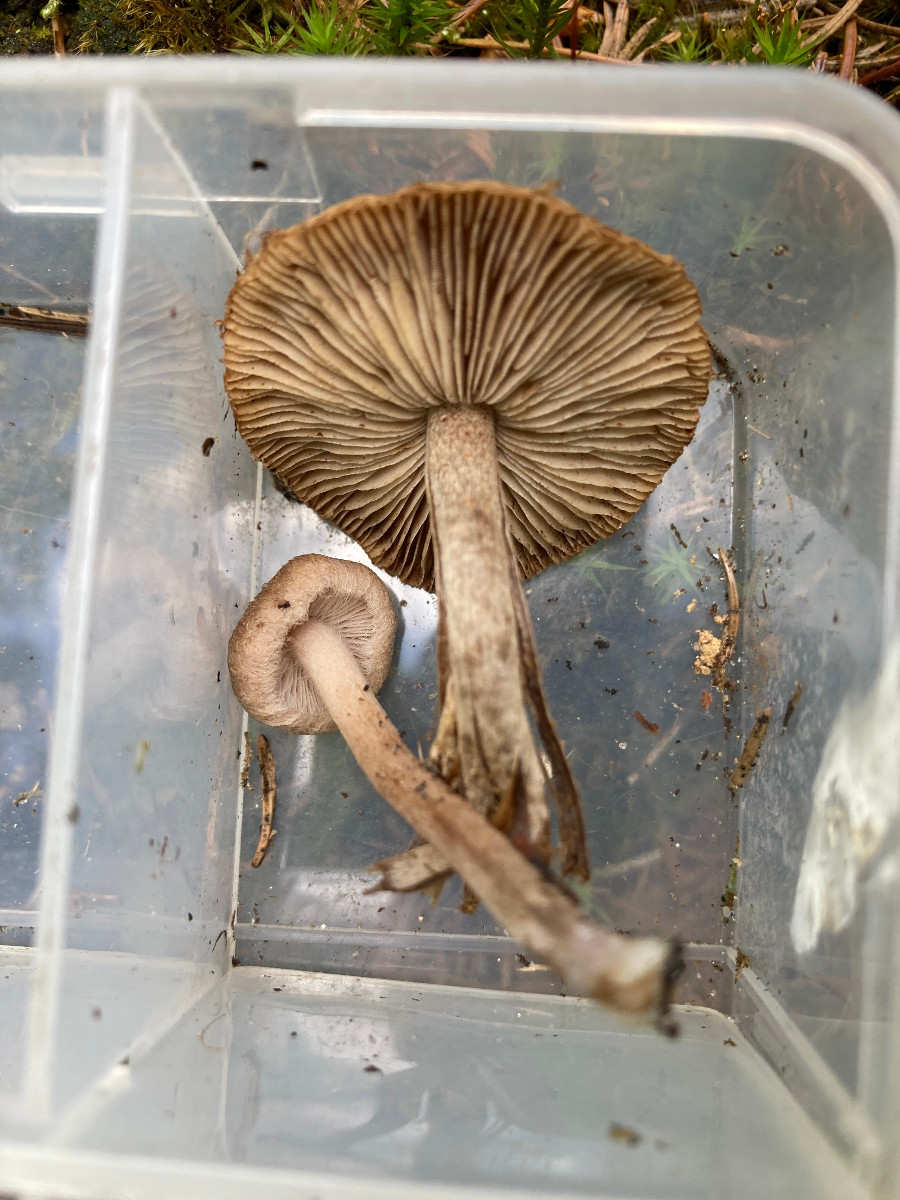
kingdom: Fungi
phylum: Basidiomycota
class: Agaricomycetes
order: Agaricales
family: Inocybaceae
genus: Inocybe
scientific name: Inocybe
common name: trævlhat
